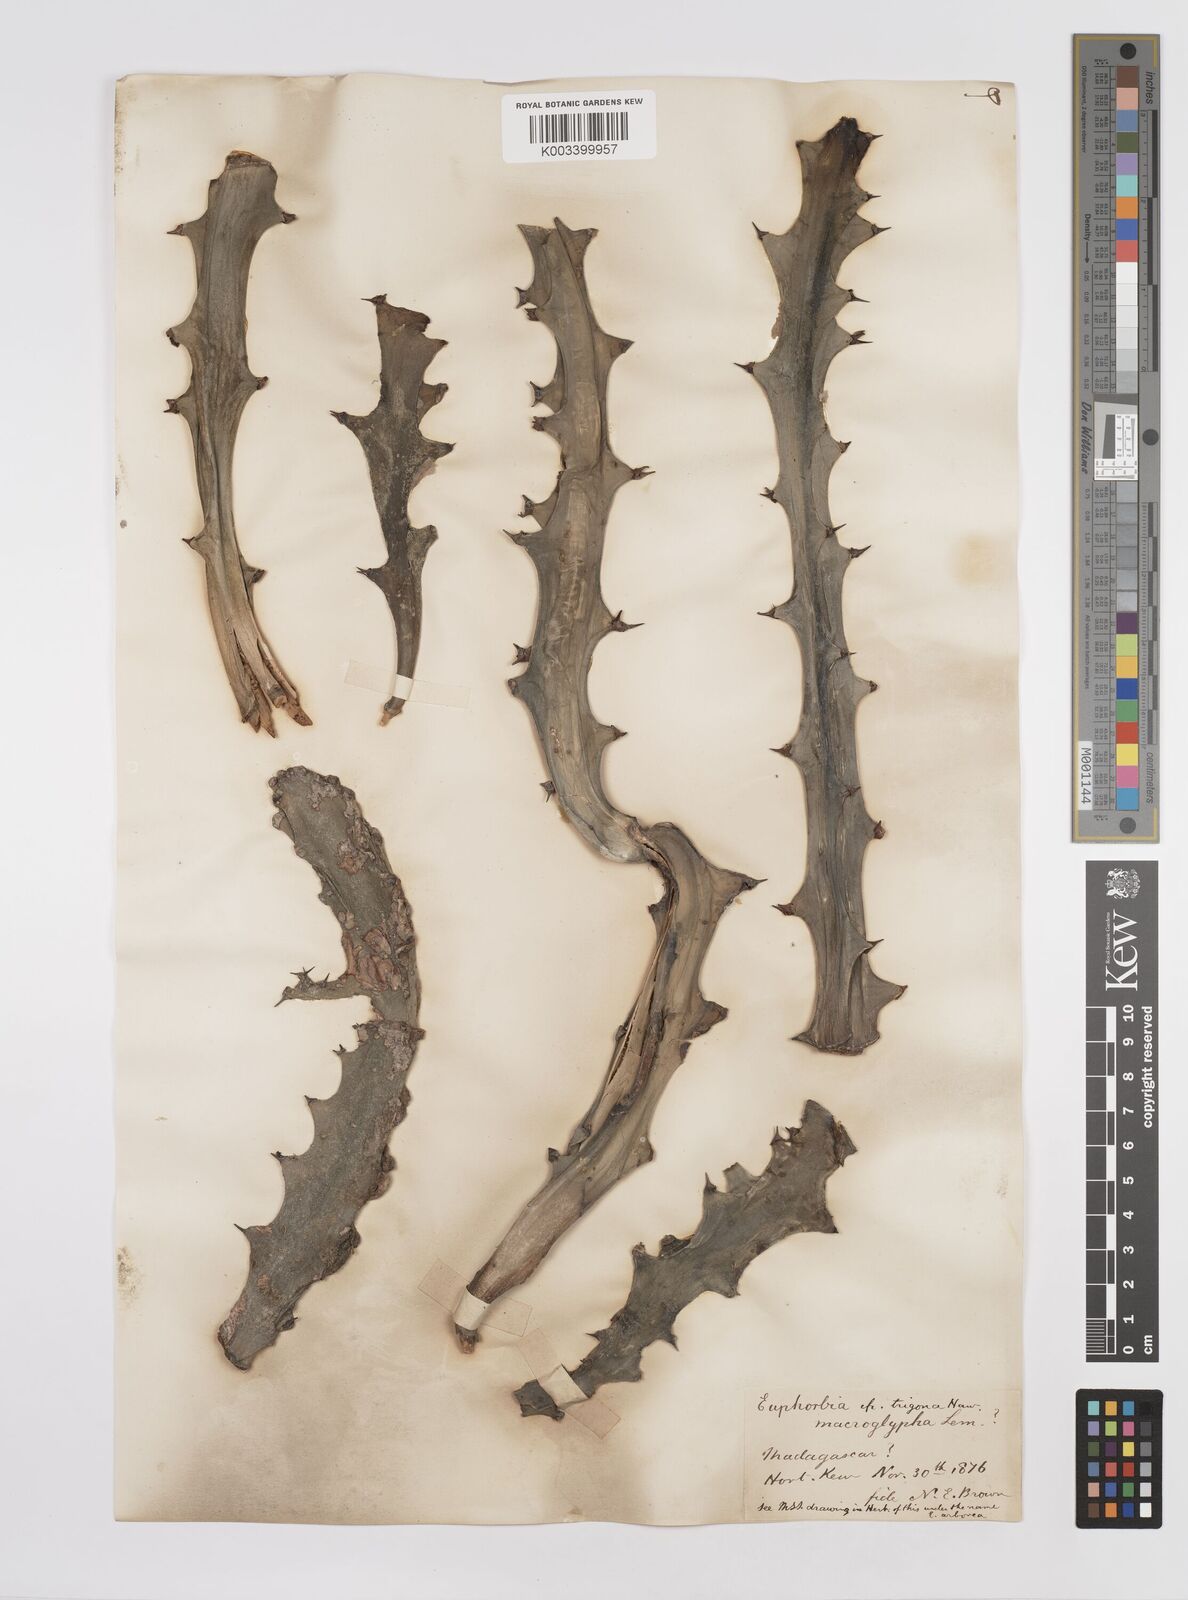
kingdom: Plantae
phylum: Tracheophyta
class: Magnoliopsida
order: Malpighiales
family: Euphorbiaceae
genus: Euphorbia
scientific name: Euphorbia macroglypha
